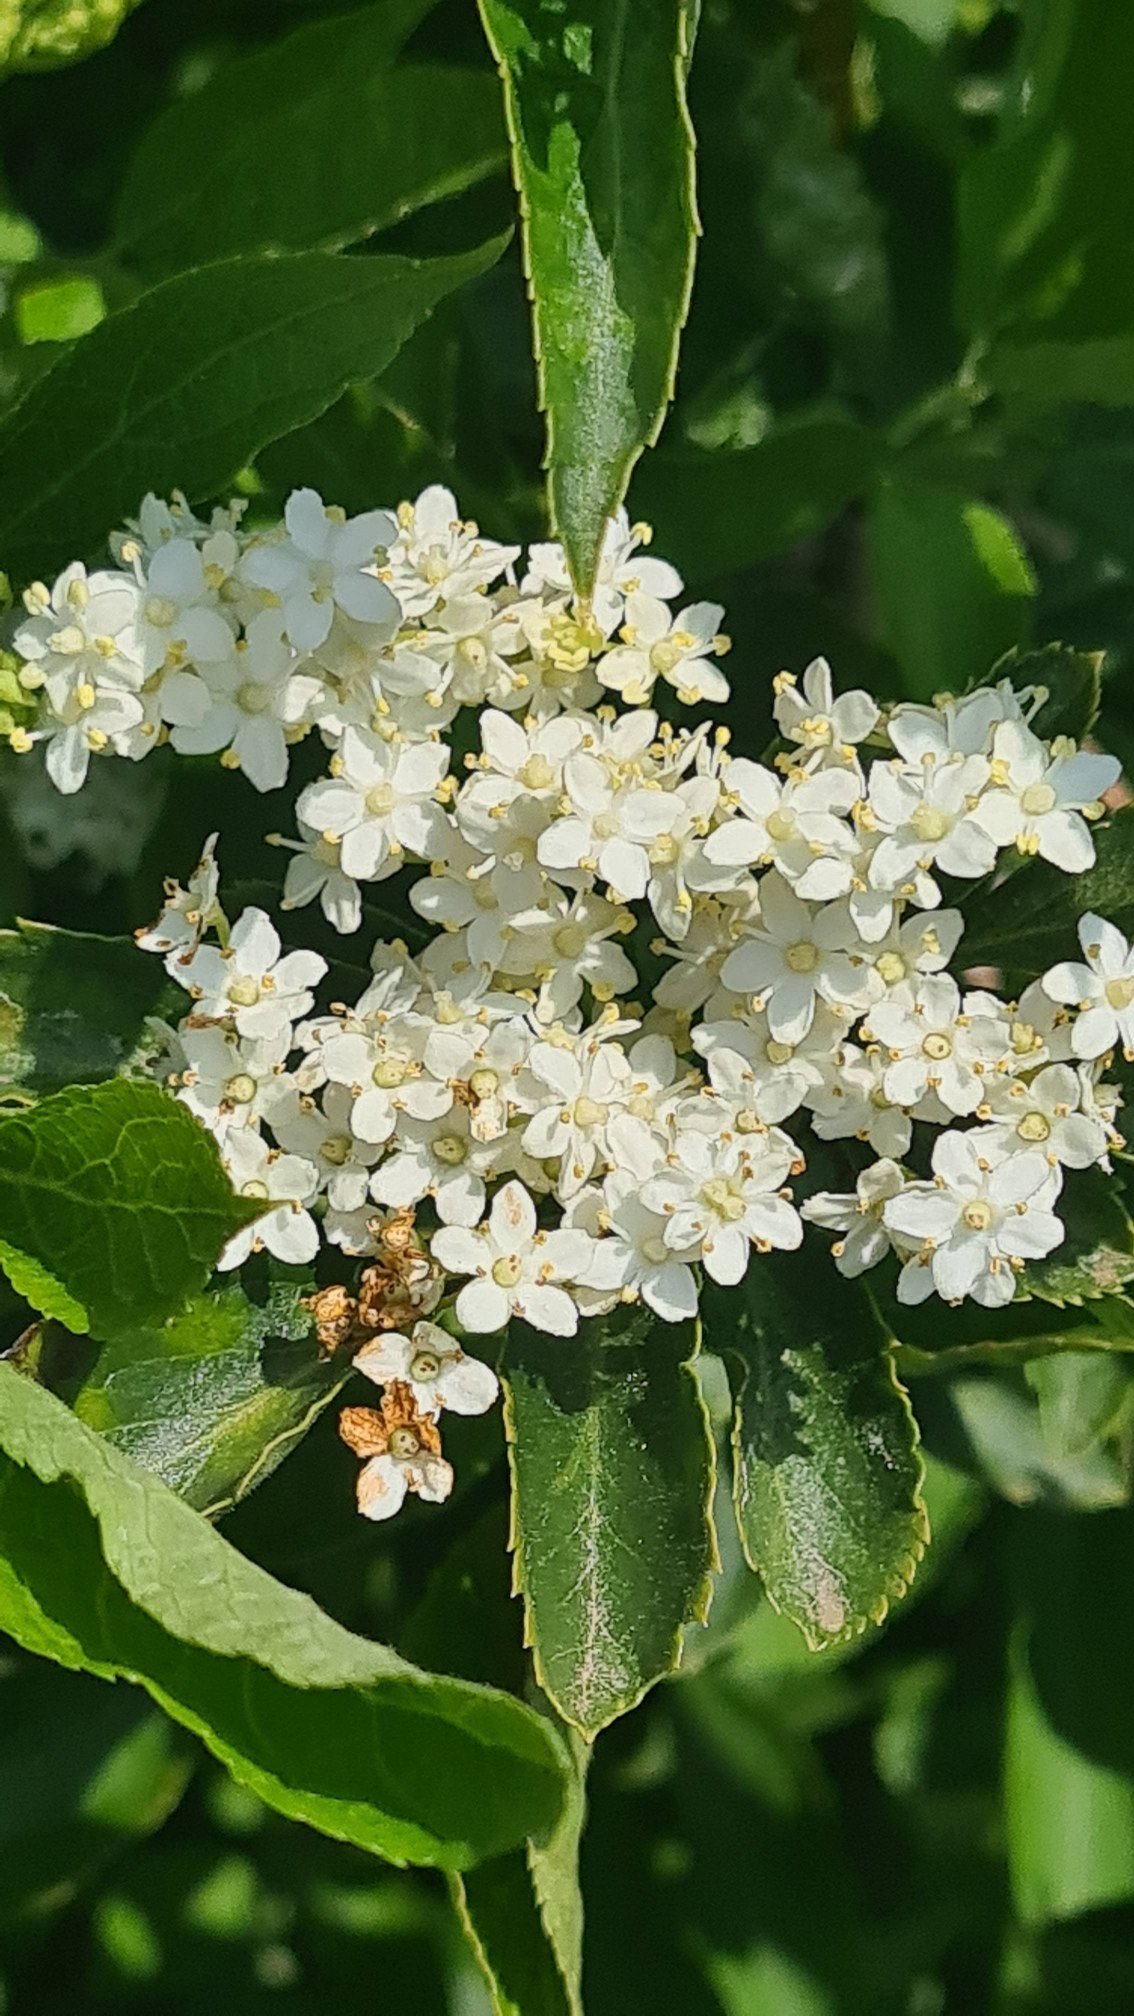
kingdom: Plantae
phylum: Tracheophyta
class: Magnoliopsida
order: Dipsacales
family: Viburnaceae
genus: Sambucus
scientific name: Sambucus nigra
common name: Almindelig hyld
